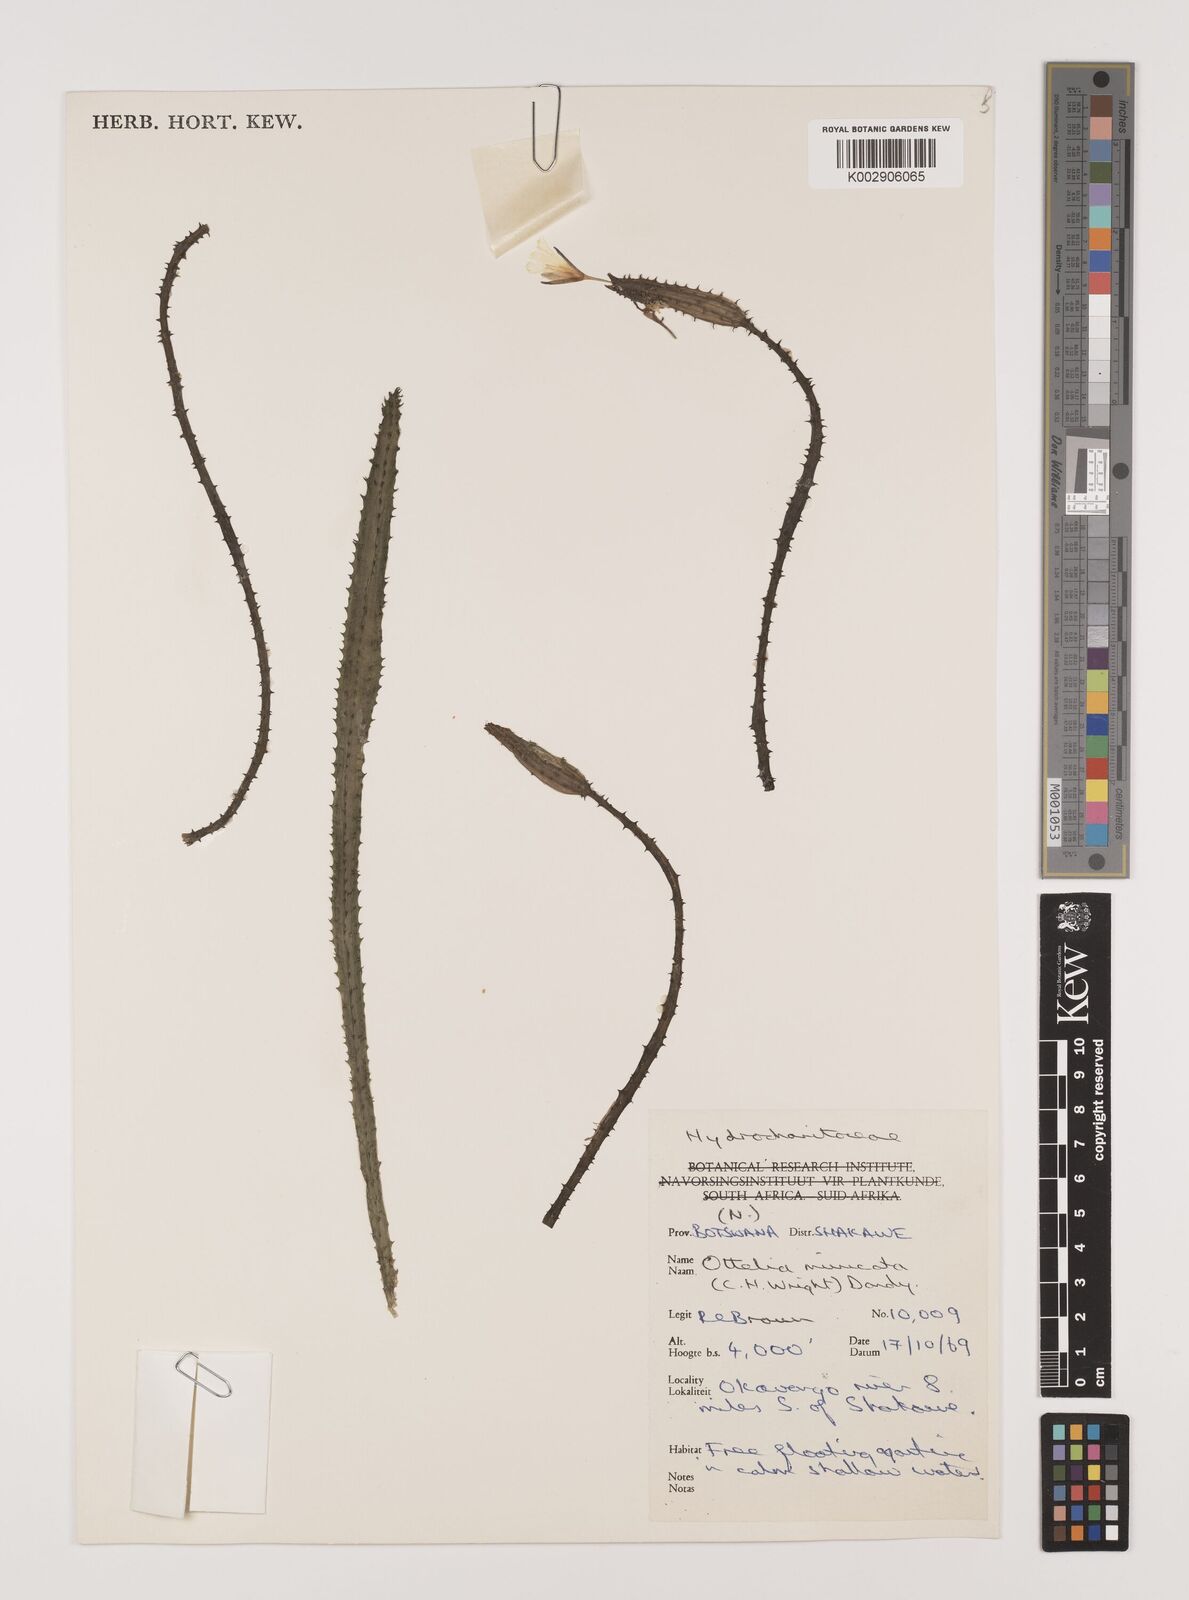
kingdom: Plantae
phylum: Tracheophyta
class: Liliopsida
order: Alismatales
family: Hydrocharitaceae
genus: Ottelia
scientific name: Ottelia muricata
